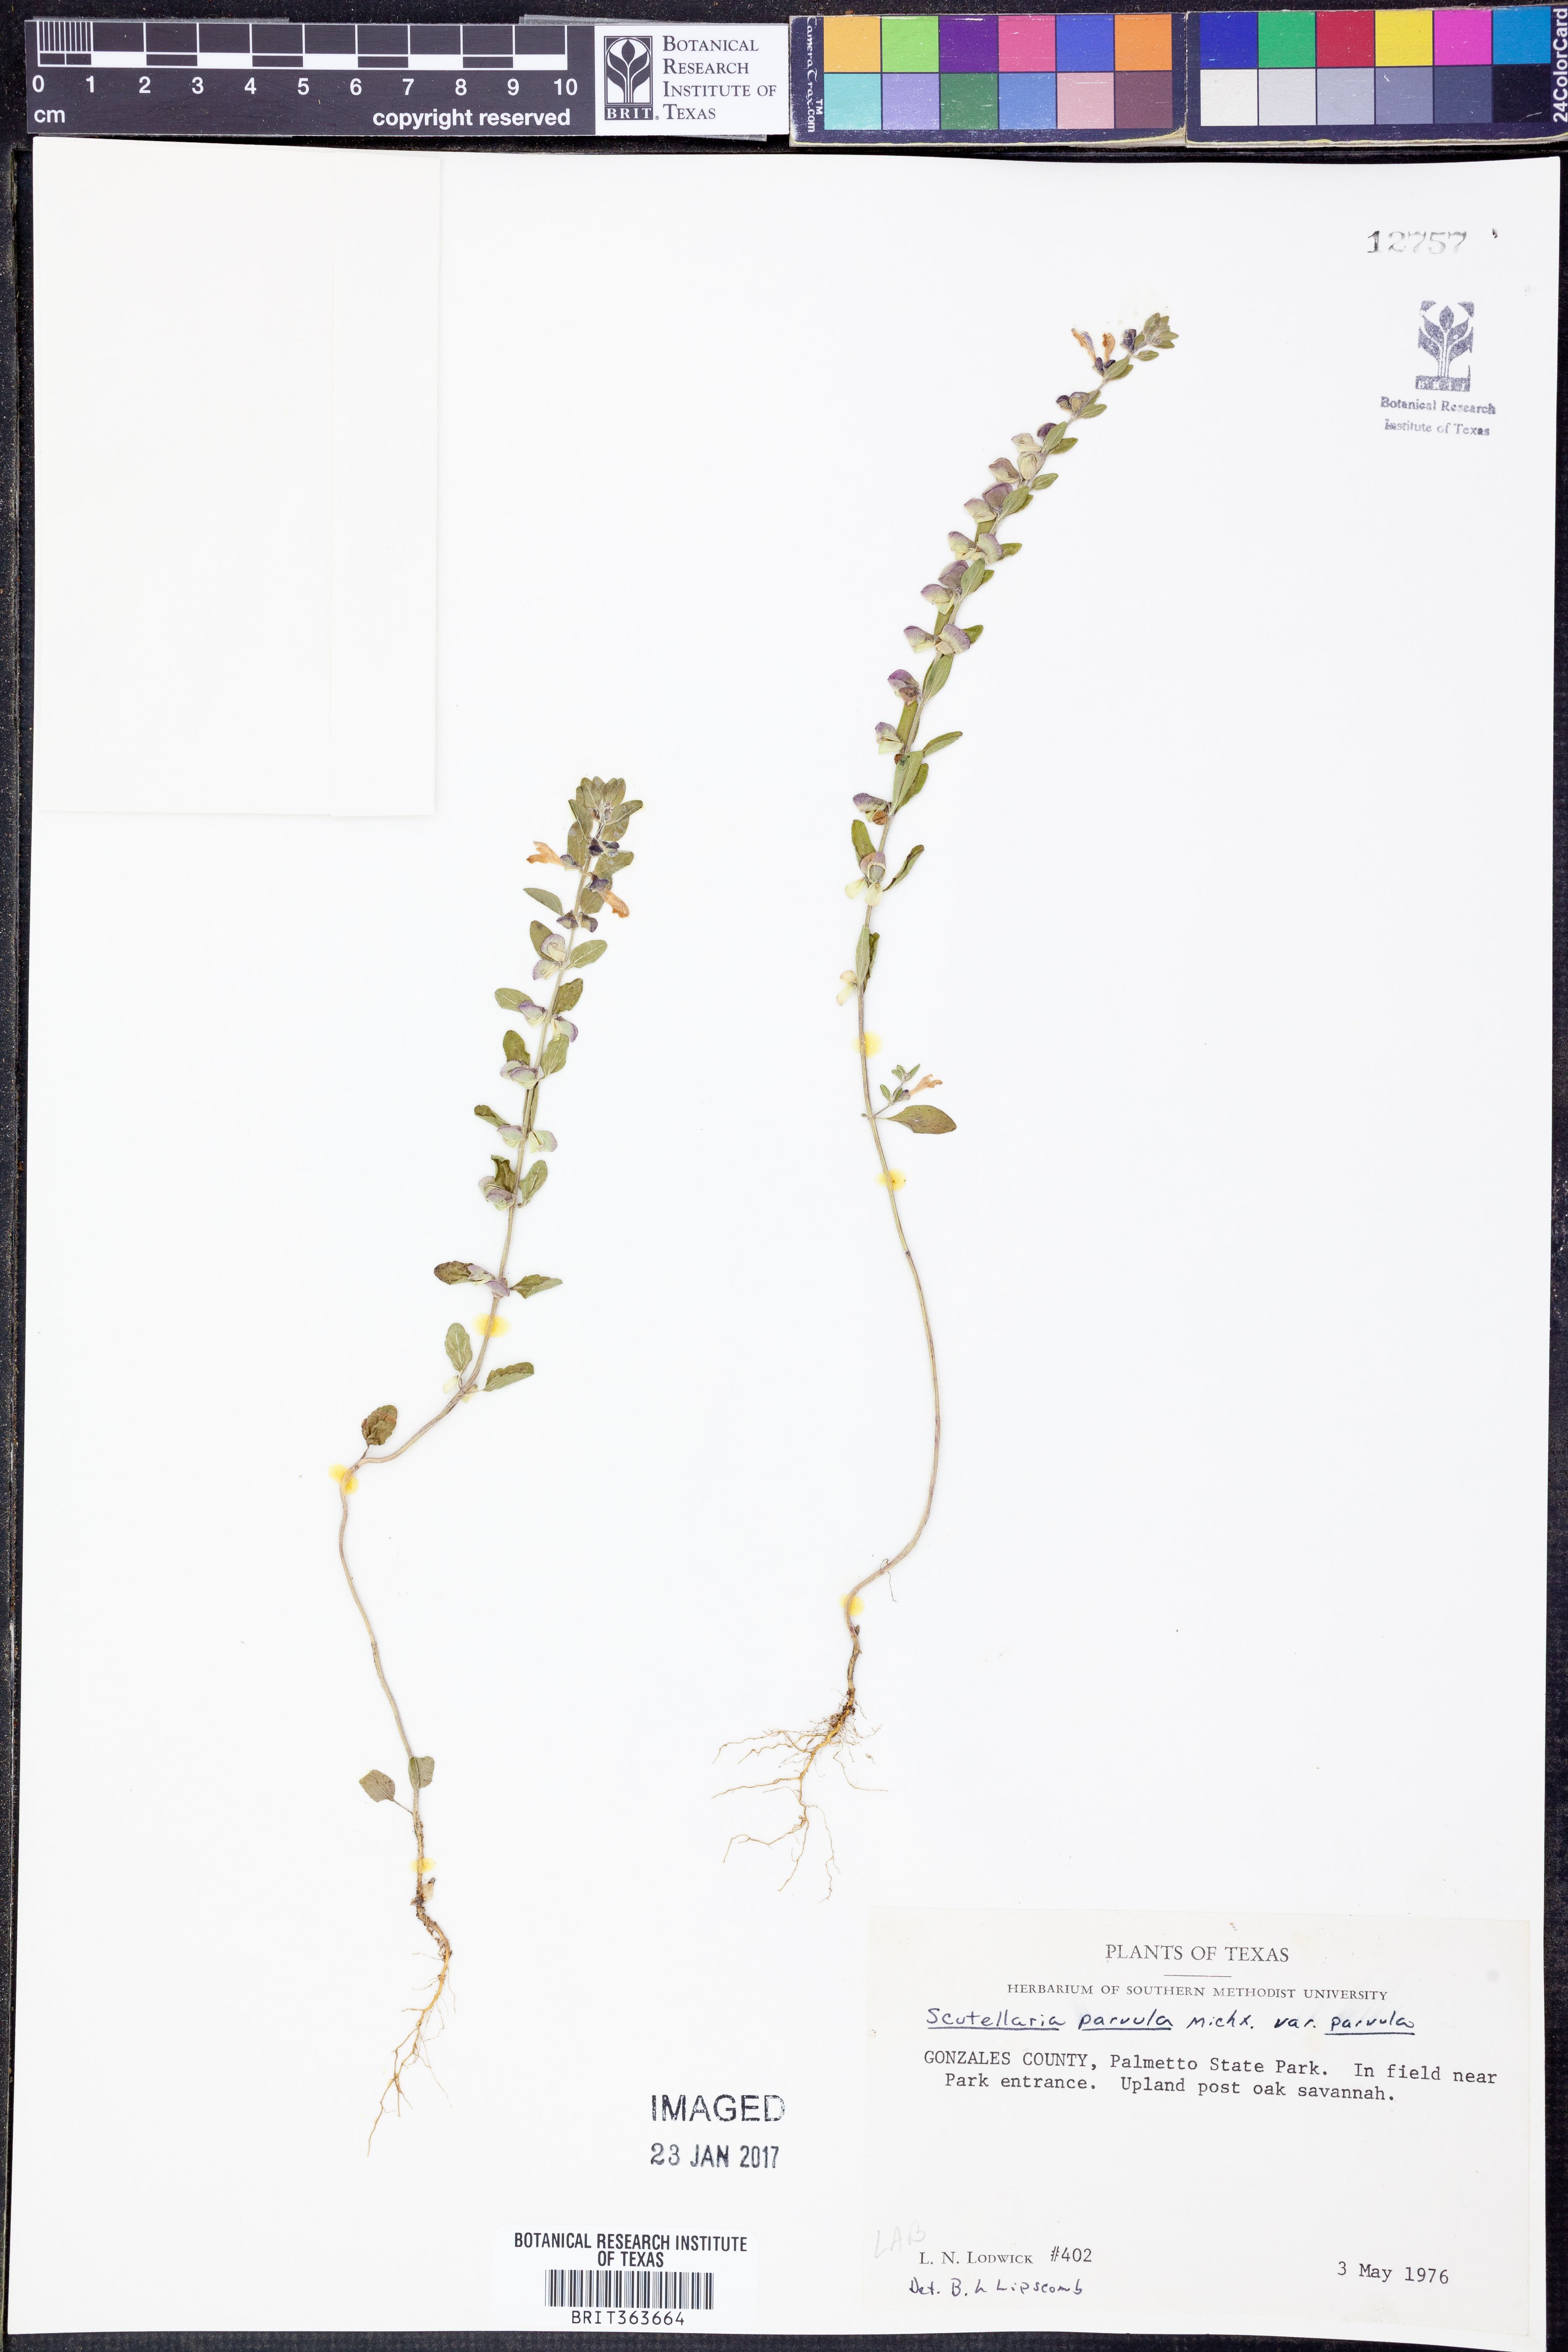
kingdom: Plantae
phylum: Tracheophyta
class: Magnoliopsida
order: Lamiales
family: Lamiaceae
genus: Scutellaria
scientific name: Scutellaria parvula
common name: Little scullcap
